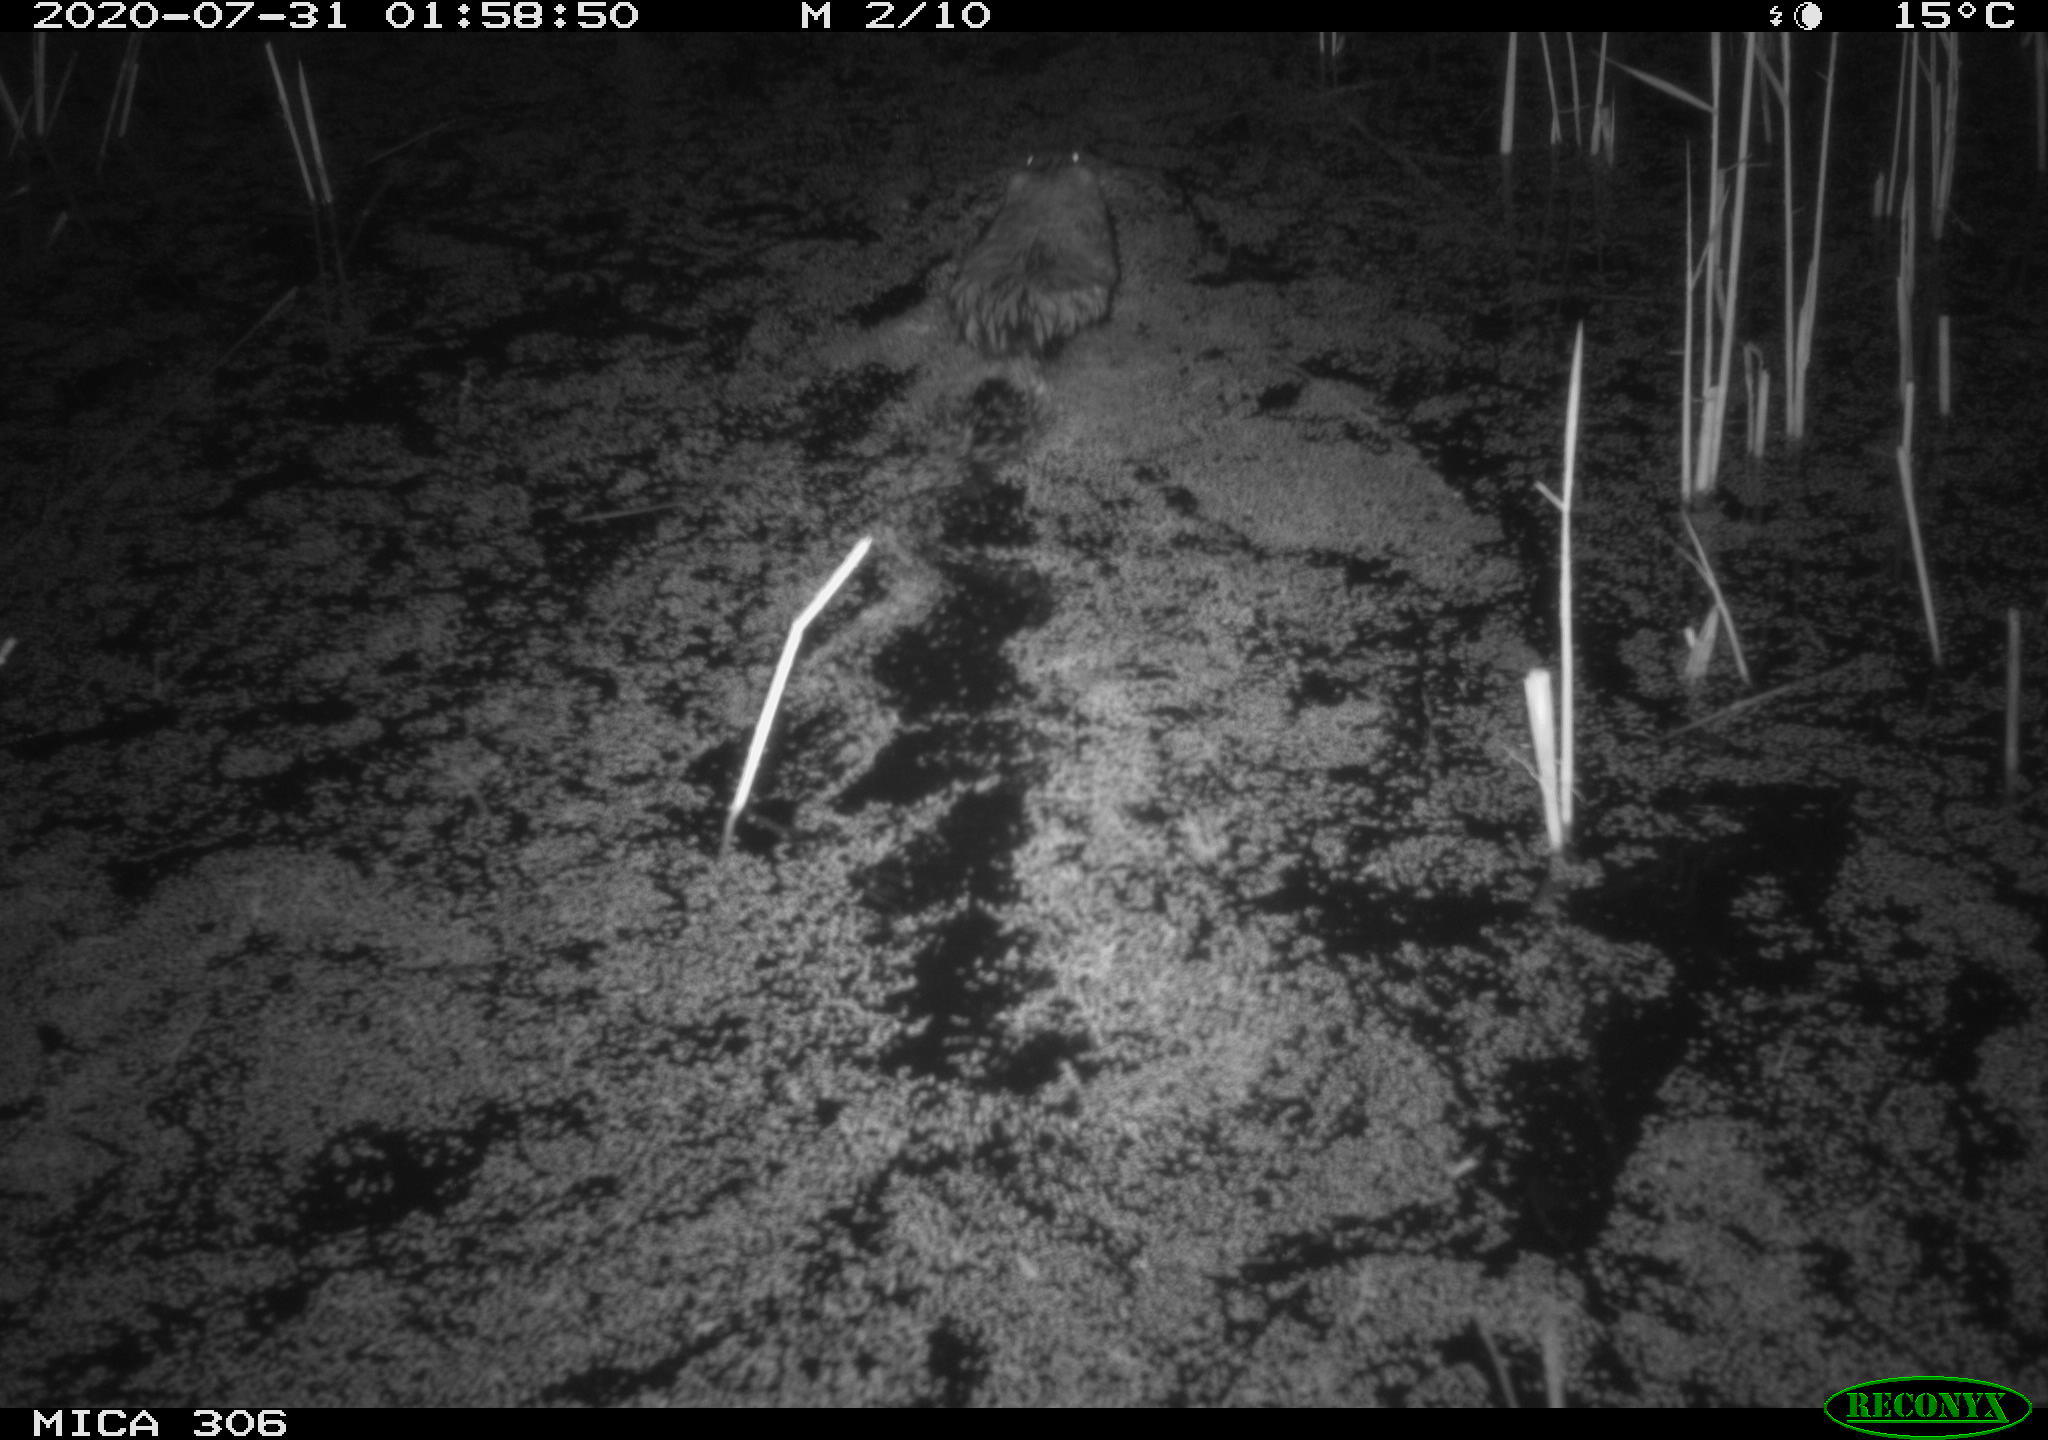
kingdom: Animalia
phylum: Chordata
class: Mammalia
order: Rodentia
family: Cricetidae
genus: Ondatra
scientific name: Ondatra zibethicus
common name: Muskrat
